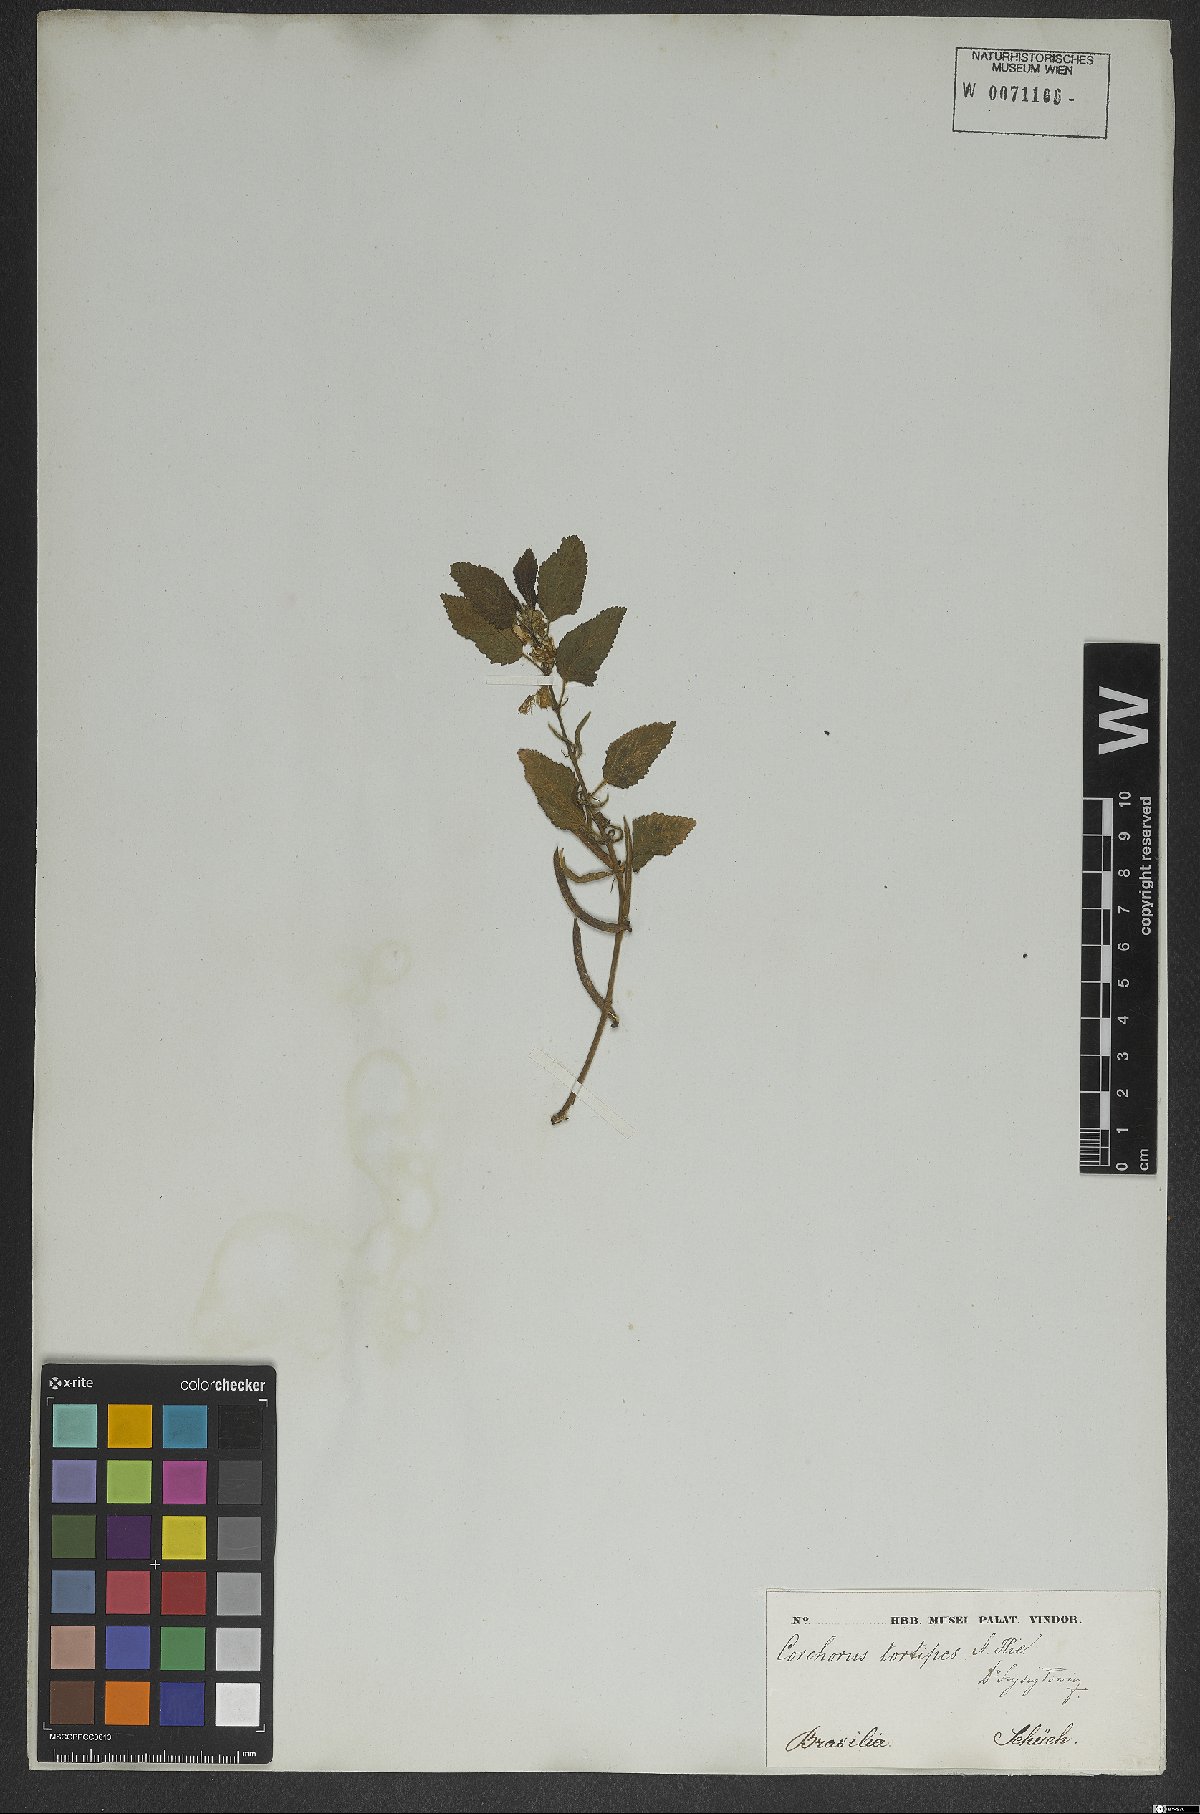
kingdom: Plantae
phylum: Tracheophyta
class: Magnoliopsida
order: Malvales
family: Malvaceae
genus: Corchorus
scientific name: Corchorus hirtus
